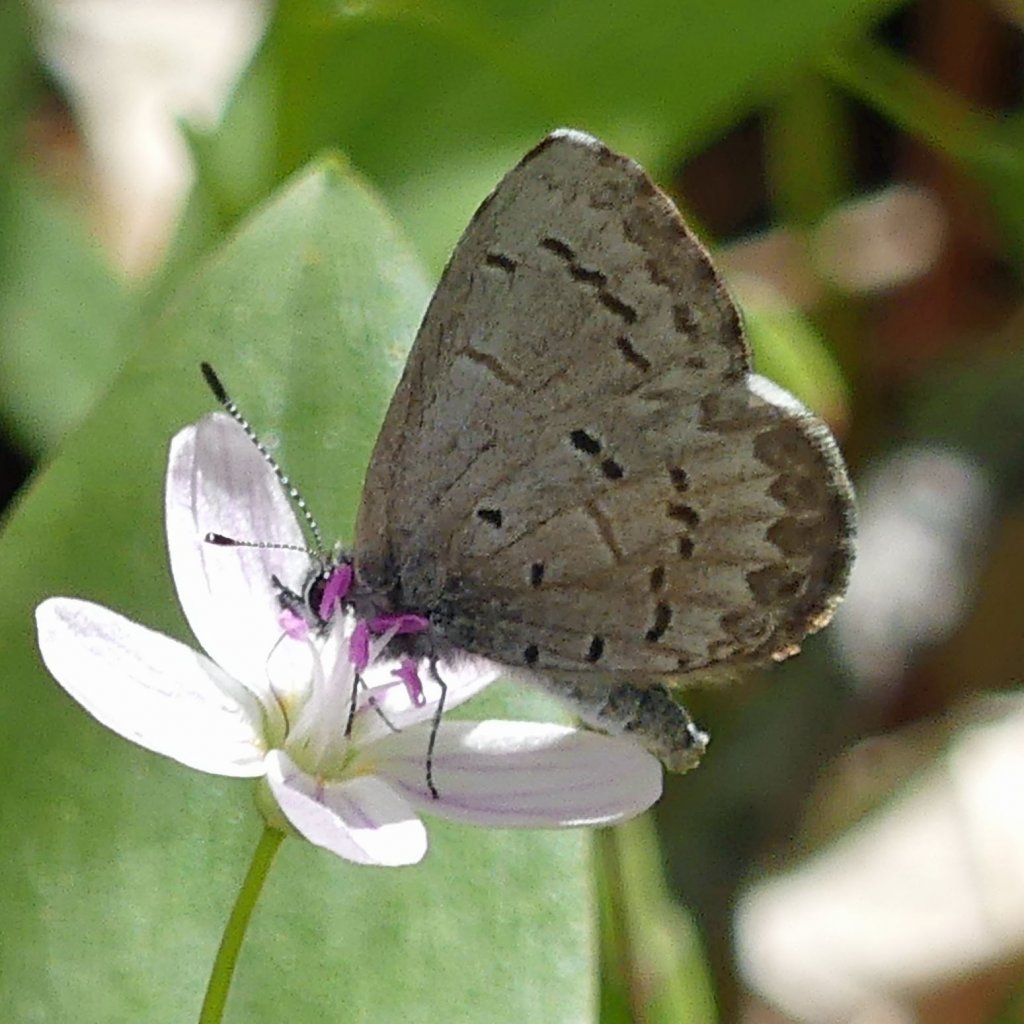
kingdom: Animalia
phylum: Arthropoda
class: Insecta
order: Lepidoptera
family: Lycaenidae
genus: Celastrina
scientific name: Celastrina
